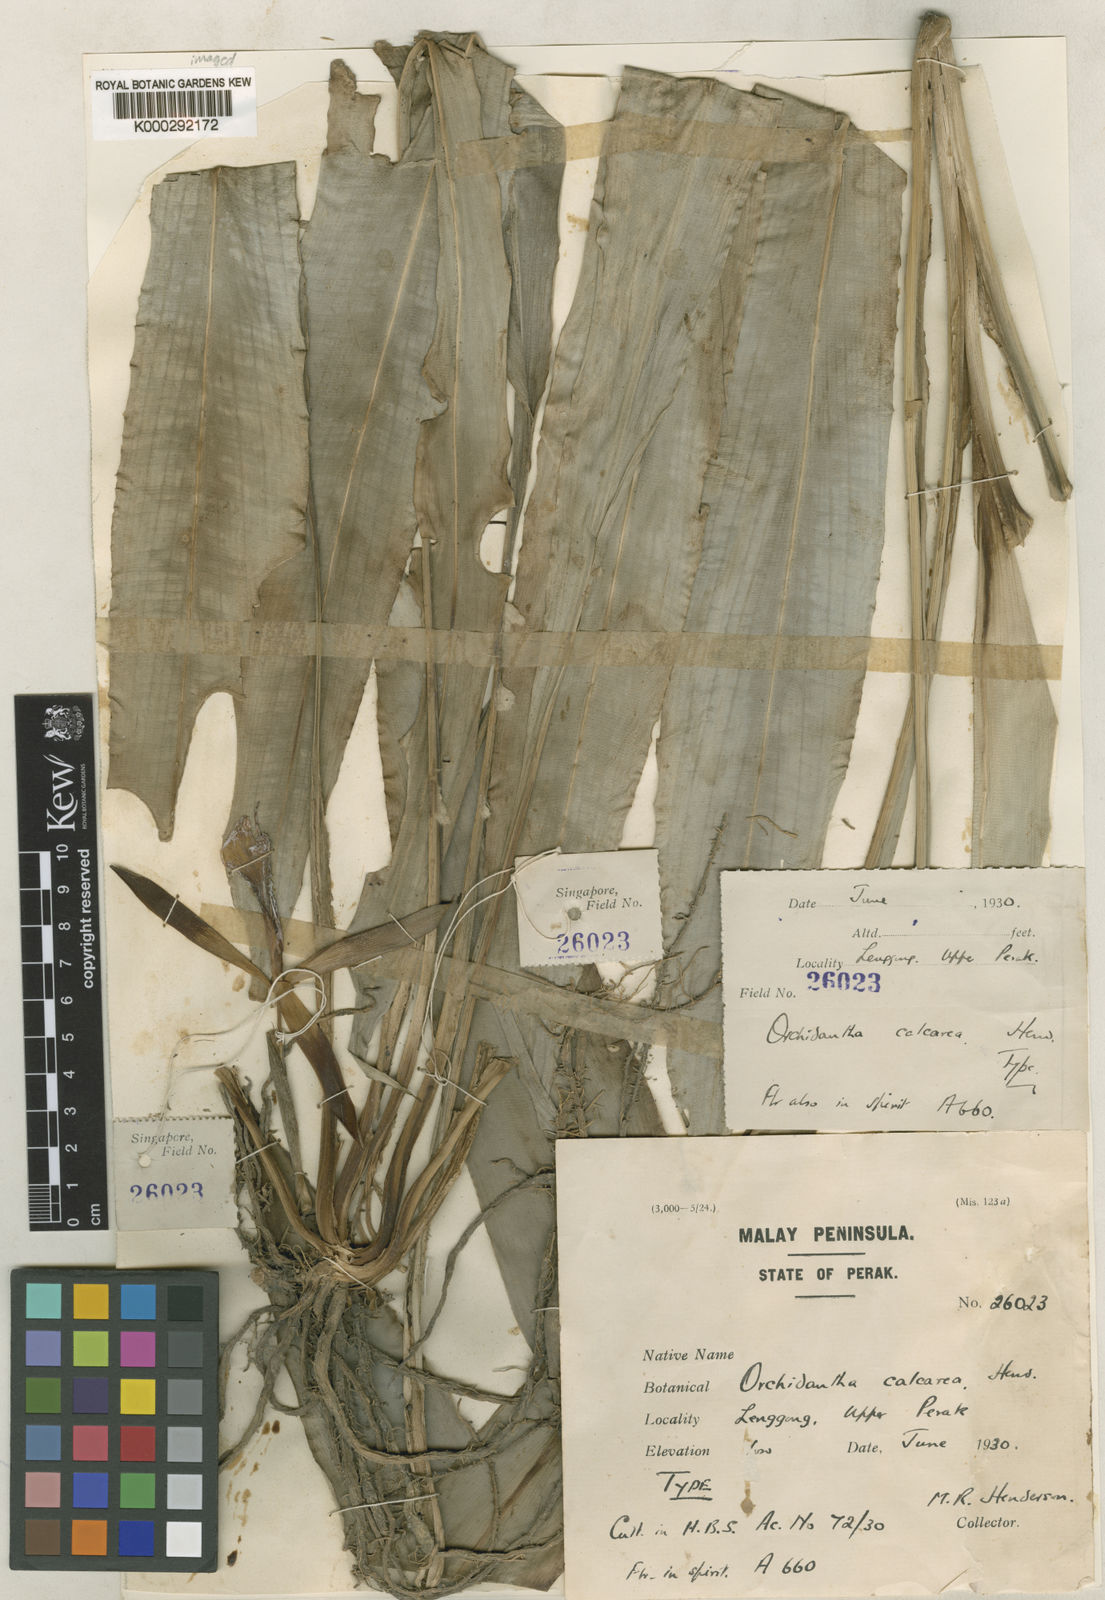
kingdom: Plantae
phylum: Tracheophyta
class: Liliopsida
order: Zingiberales
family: Lowiaceae
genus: Orchidantha
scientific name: Orchidantha longiflora
